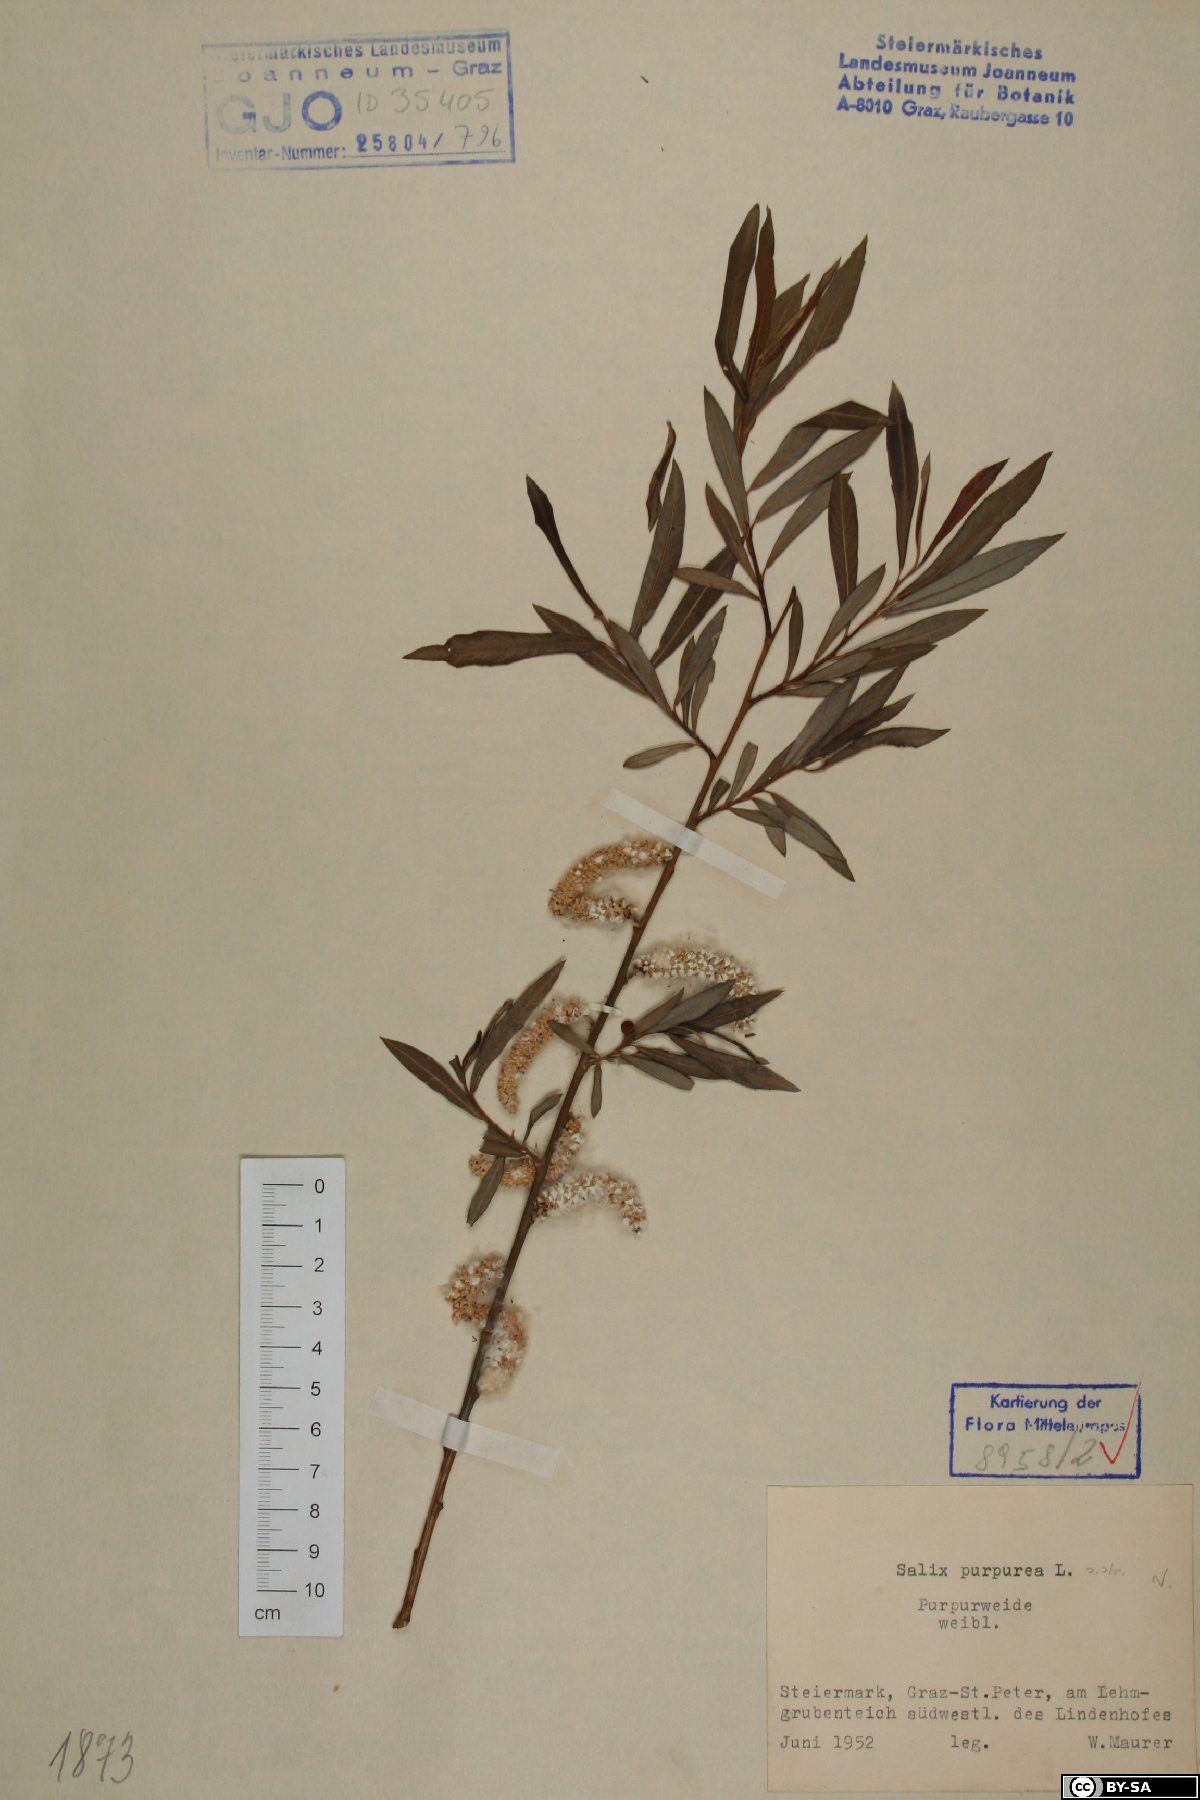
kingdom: Plantae
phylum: Tracheophyta
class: Magnoliopsida
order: Malpighiales
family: Salicaceae
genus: Salix
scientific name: Salix purpurea
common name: Purple willow
